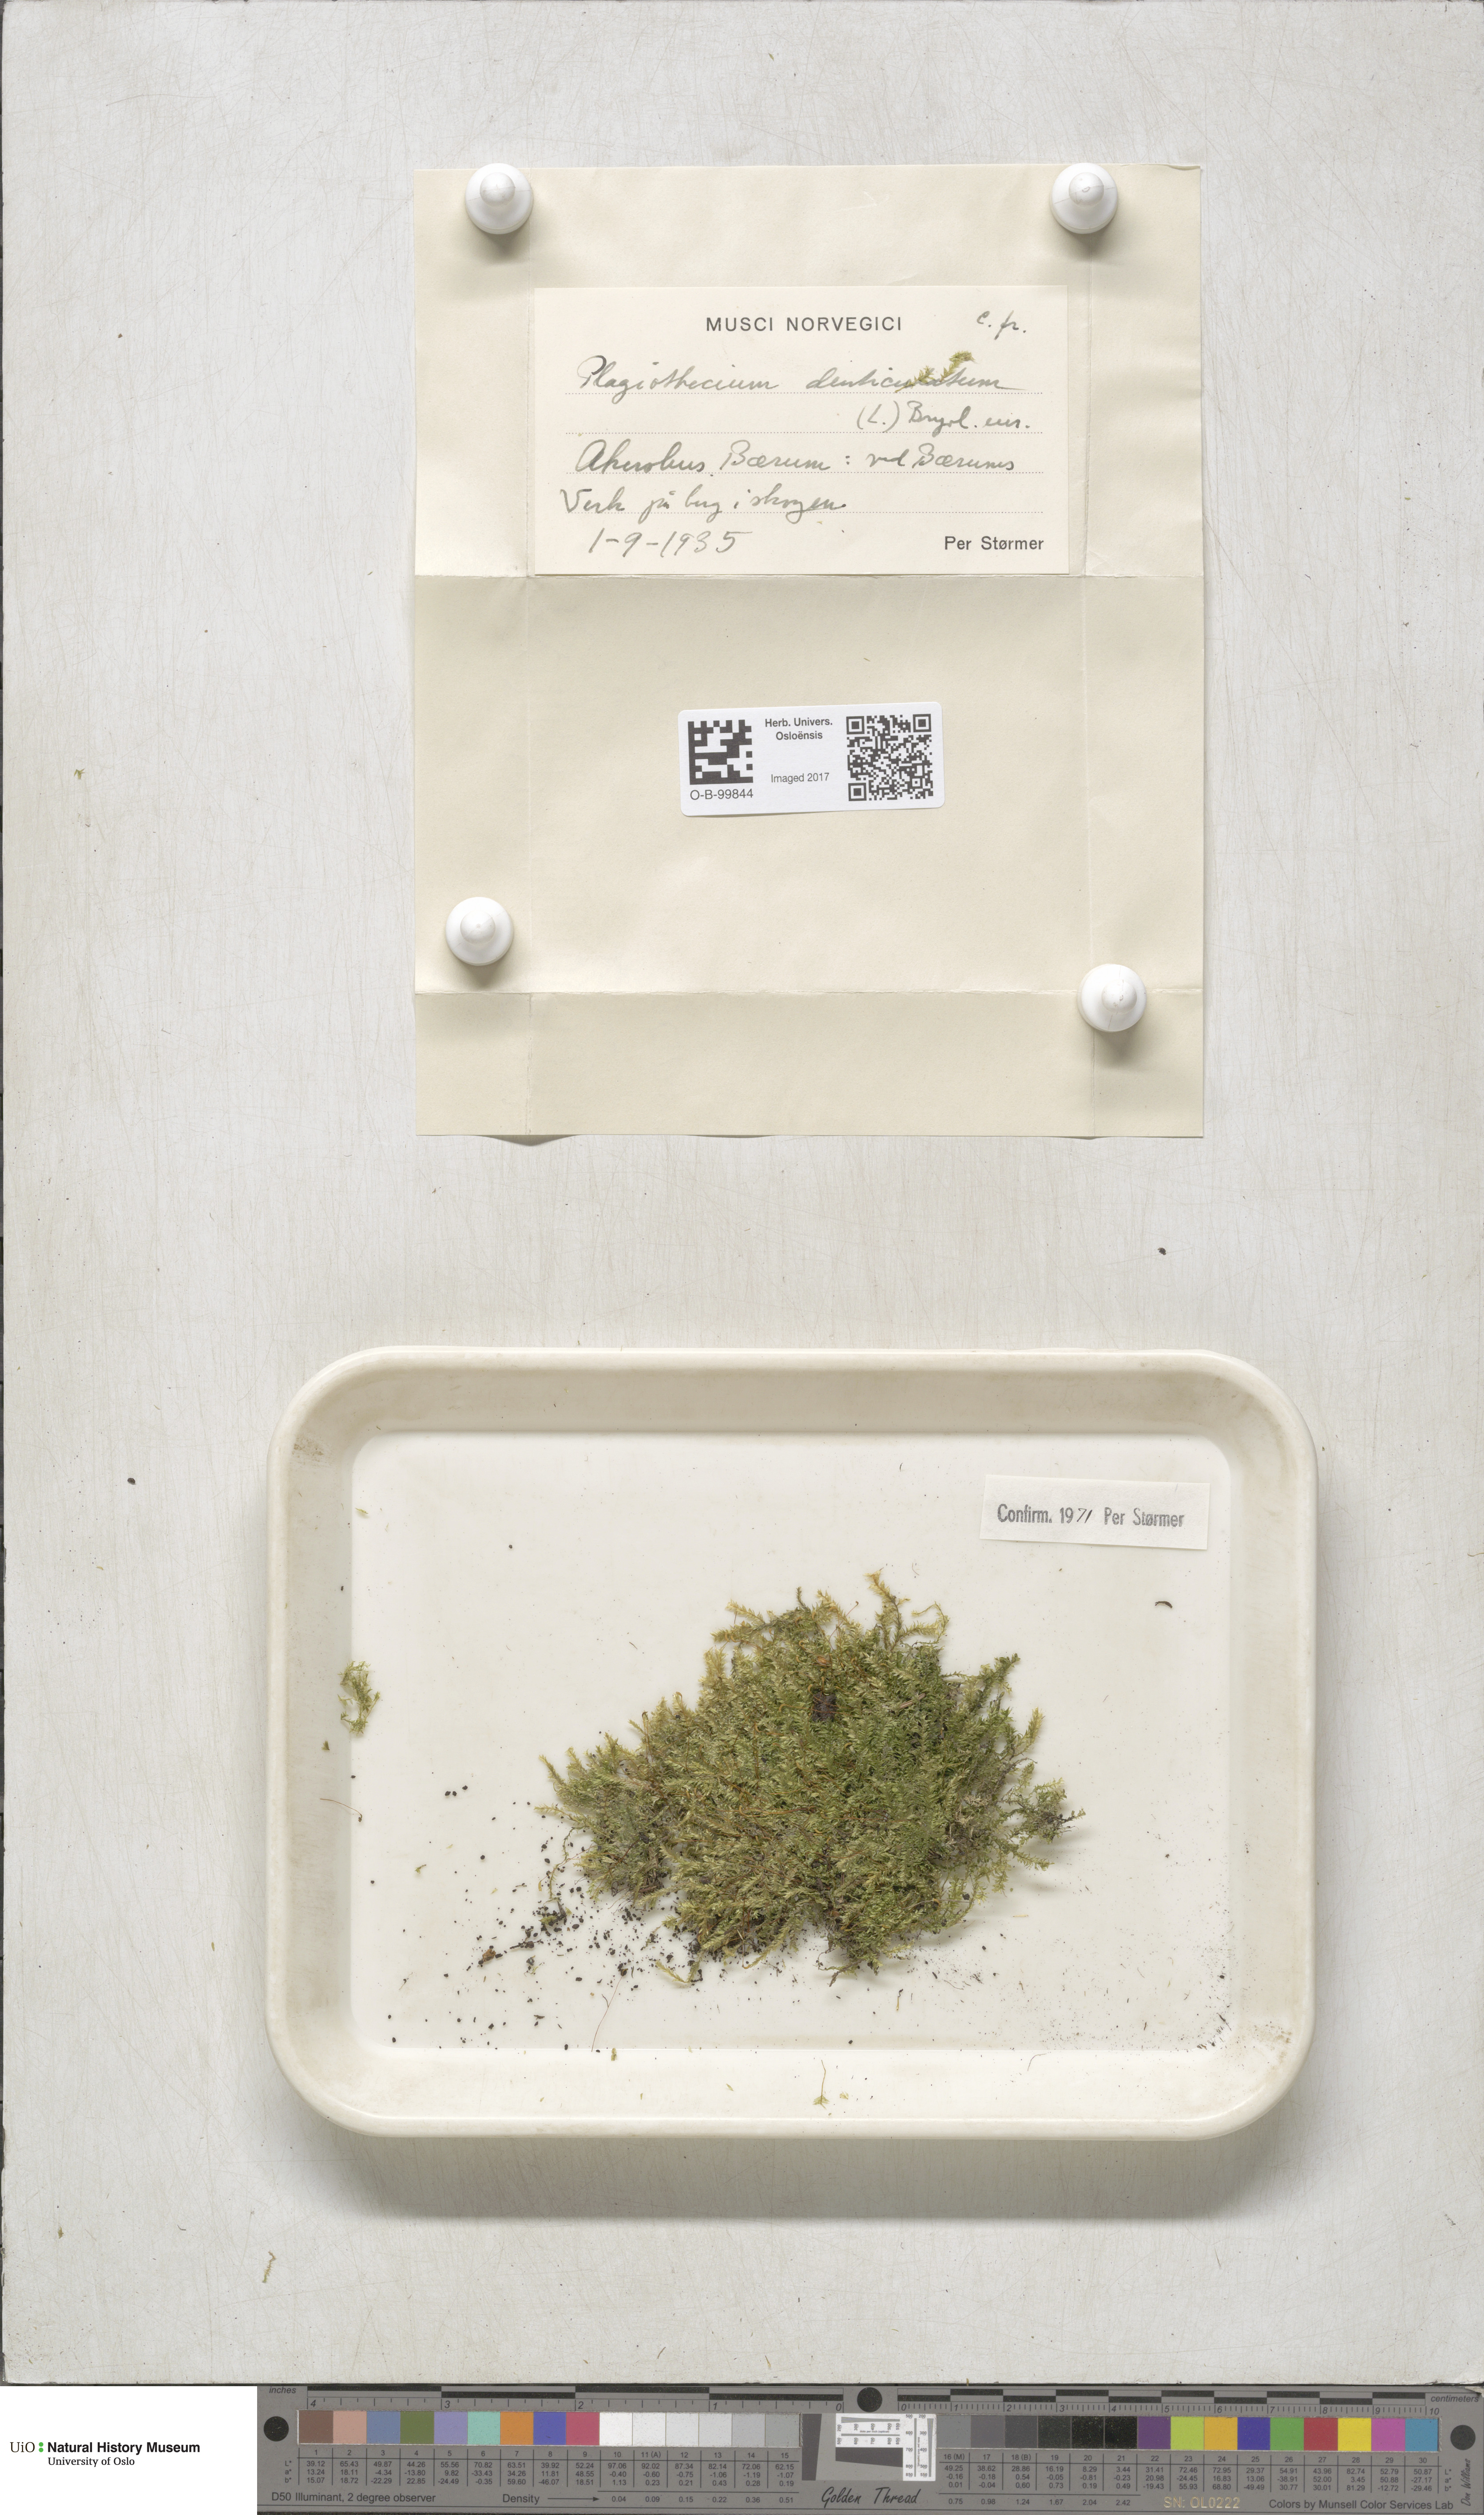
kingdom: Plantae
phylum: Bryophyta
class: Bryopsida
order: Hypnales
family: Plagiotheciaceae
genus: Plagiothecium
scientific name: Plagiothecium denticulatum
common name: Dented silk moss
